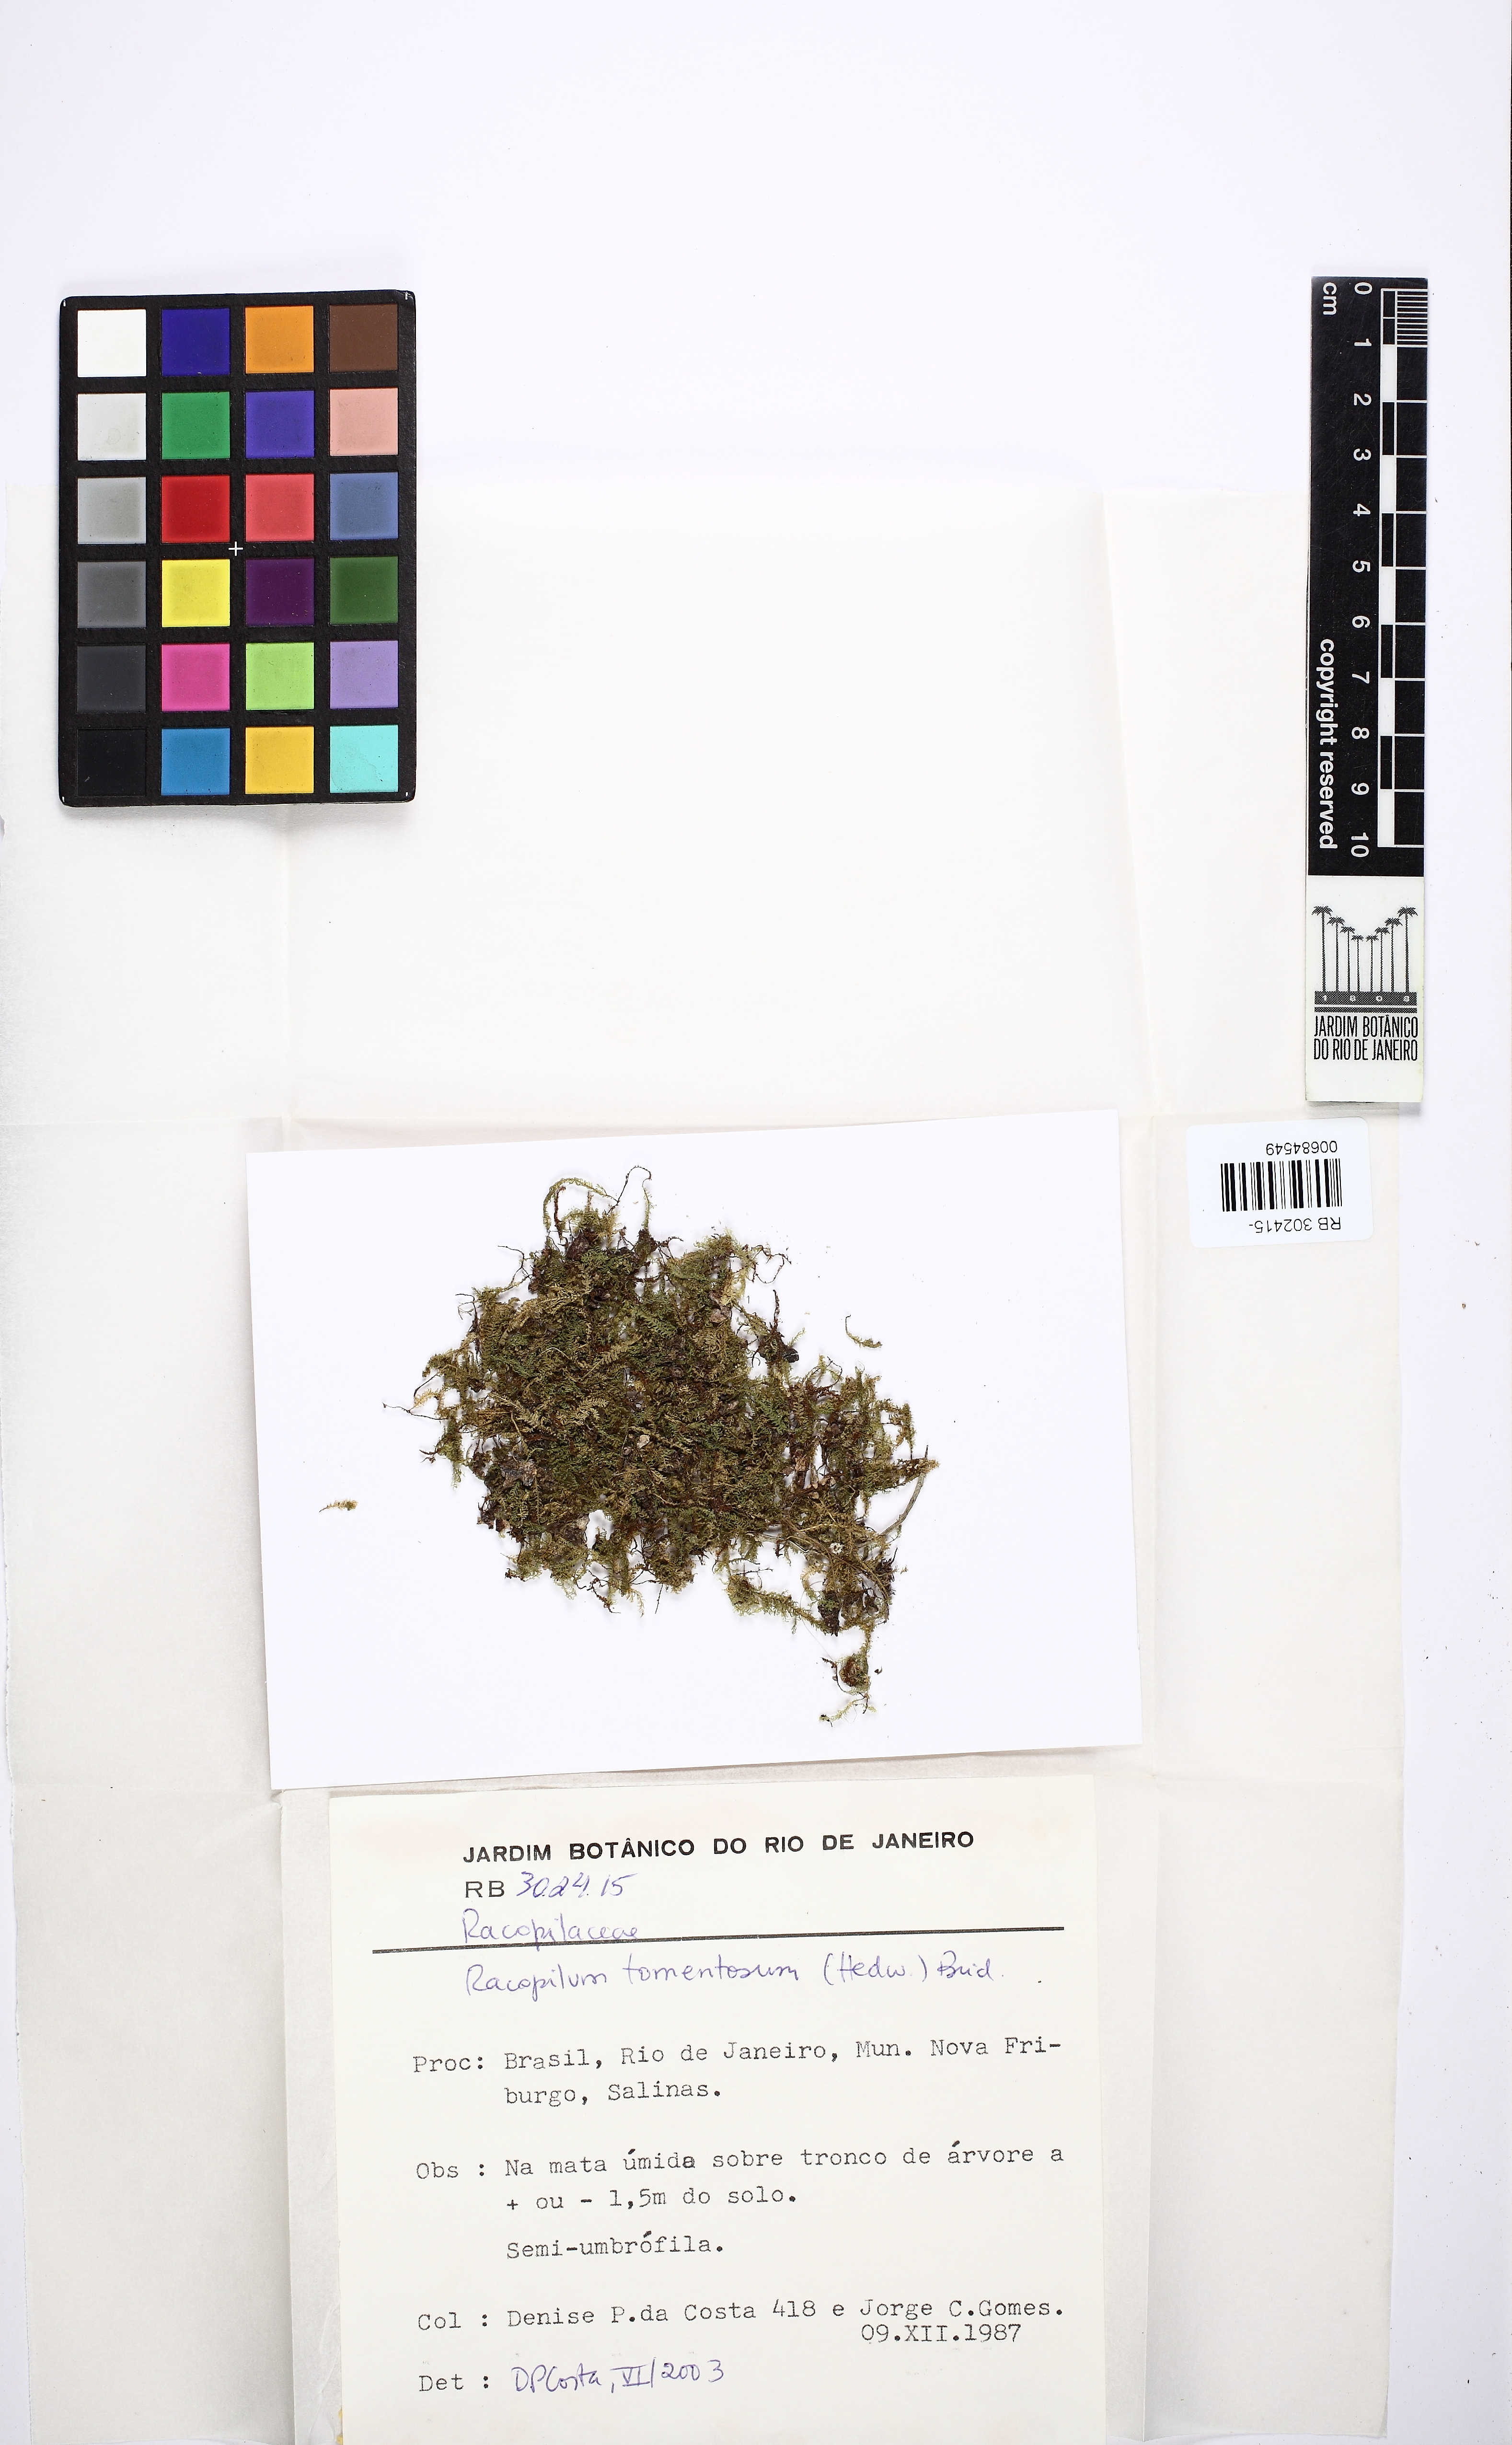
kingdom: Plantae
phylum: Bryophyta
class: Bryopsida
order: Hypnodendrales
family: Racopilaceae
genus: Racopilum
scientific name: Racopilum tomentosum
